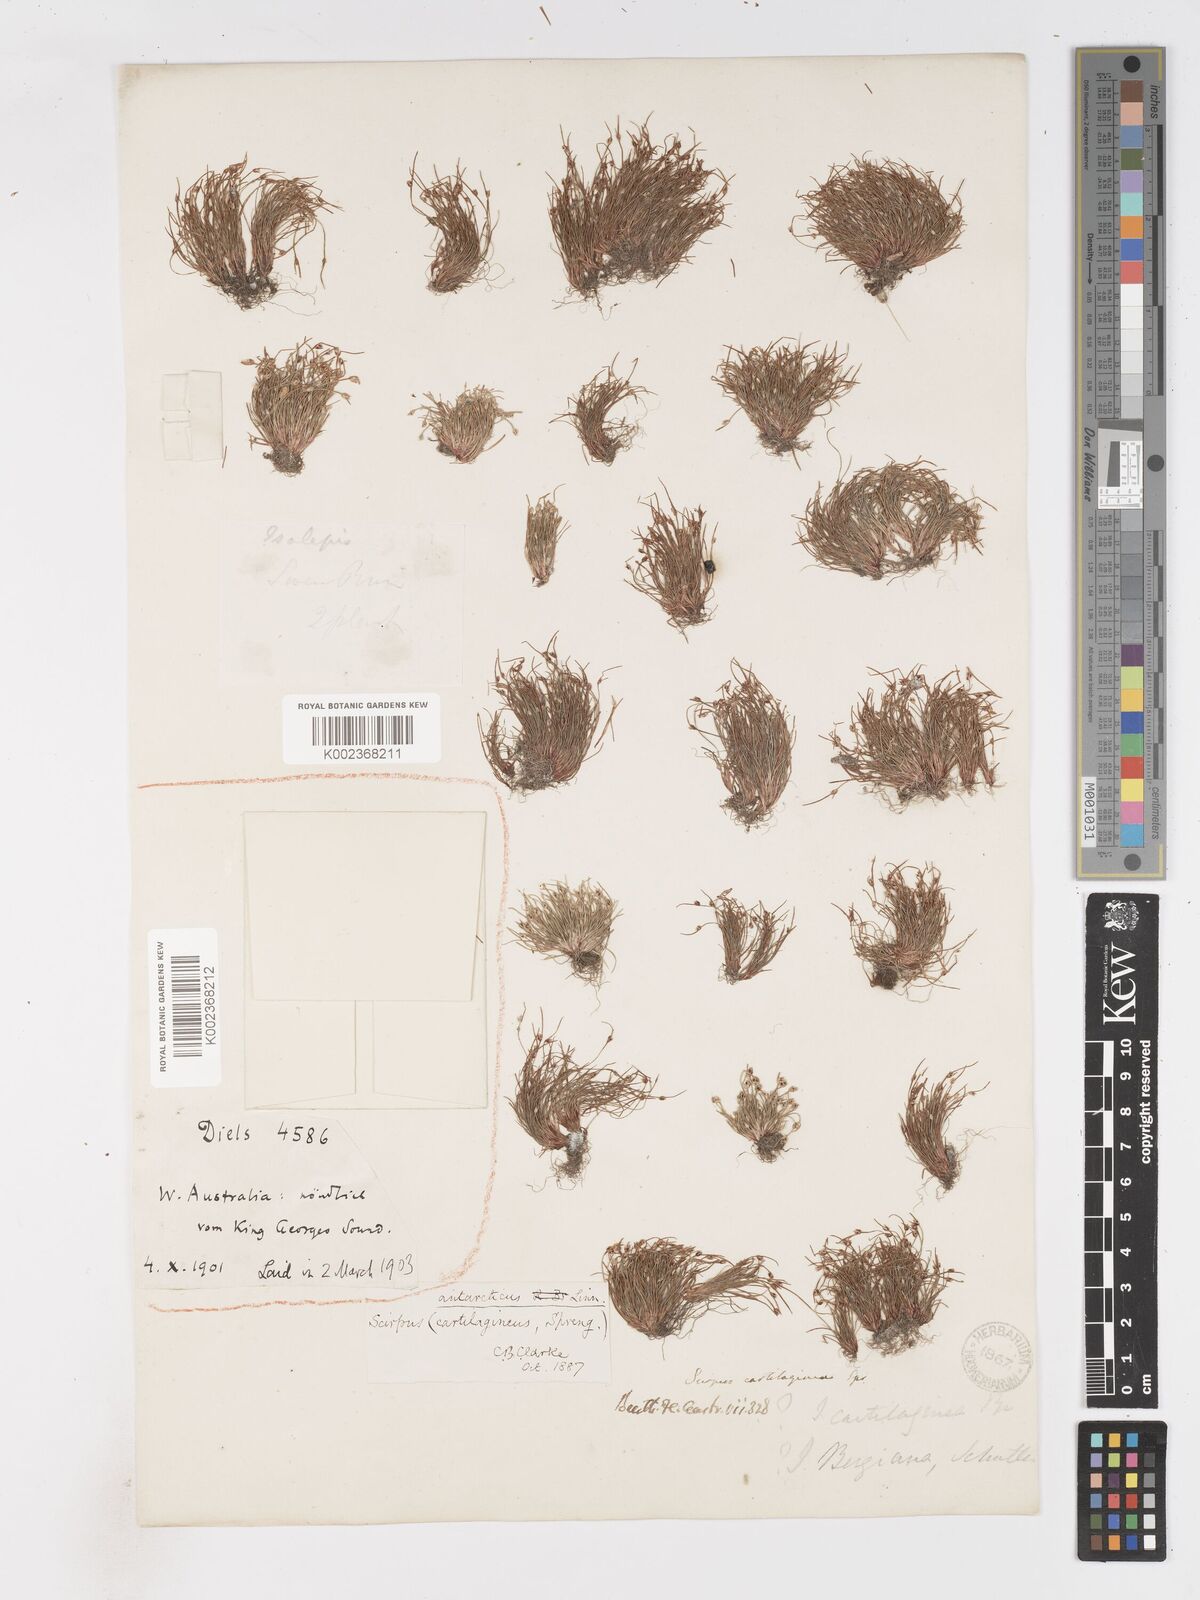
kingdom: Plantae
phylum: Tracheophyta
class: Liliopsida
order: Poales
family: Cyperaceae
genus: Isolepis
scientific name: Isolepis marginata
